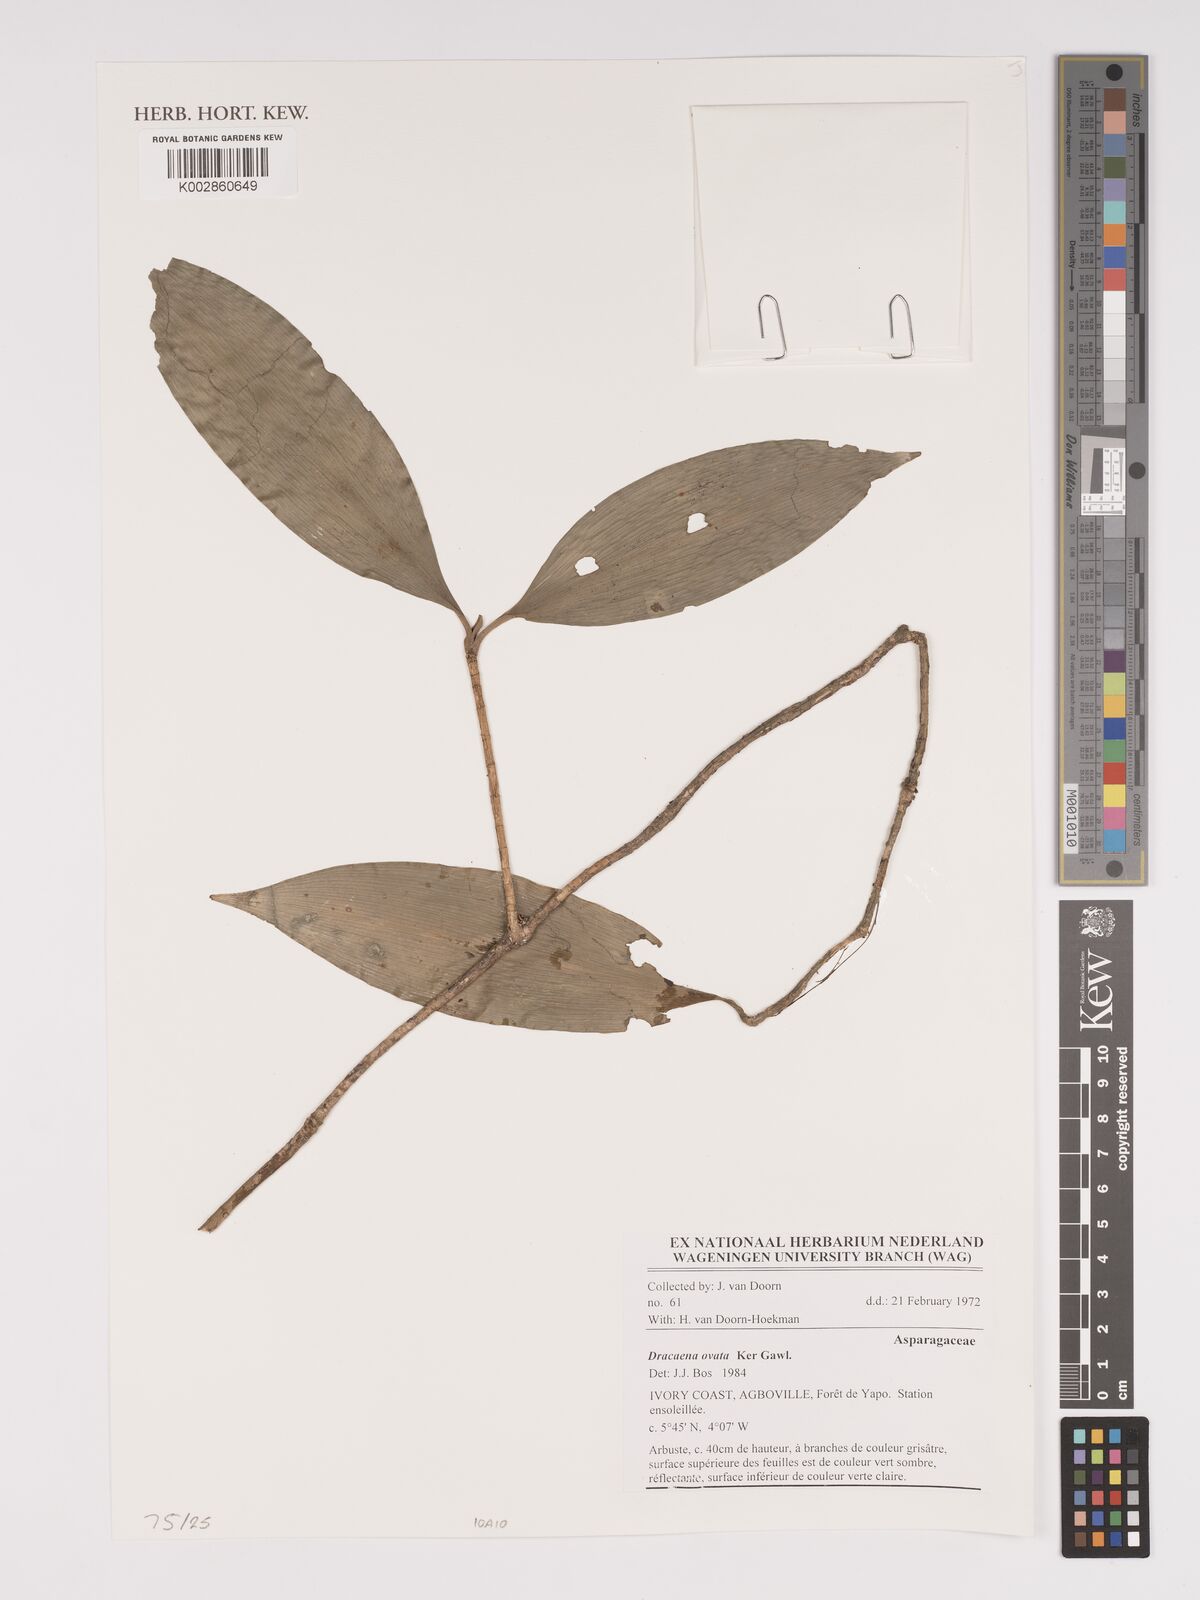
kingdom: Plantae
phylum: Tracheophyta
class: Liliopsida
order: Asparagales
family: Asparagaceae
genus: Dracaena
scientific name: Dracaena ovata
